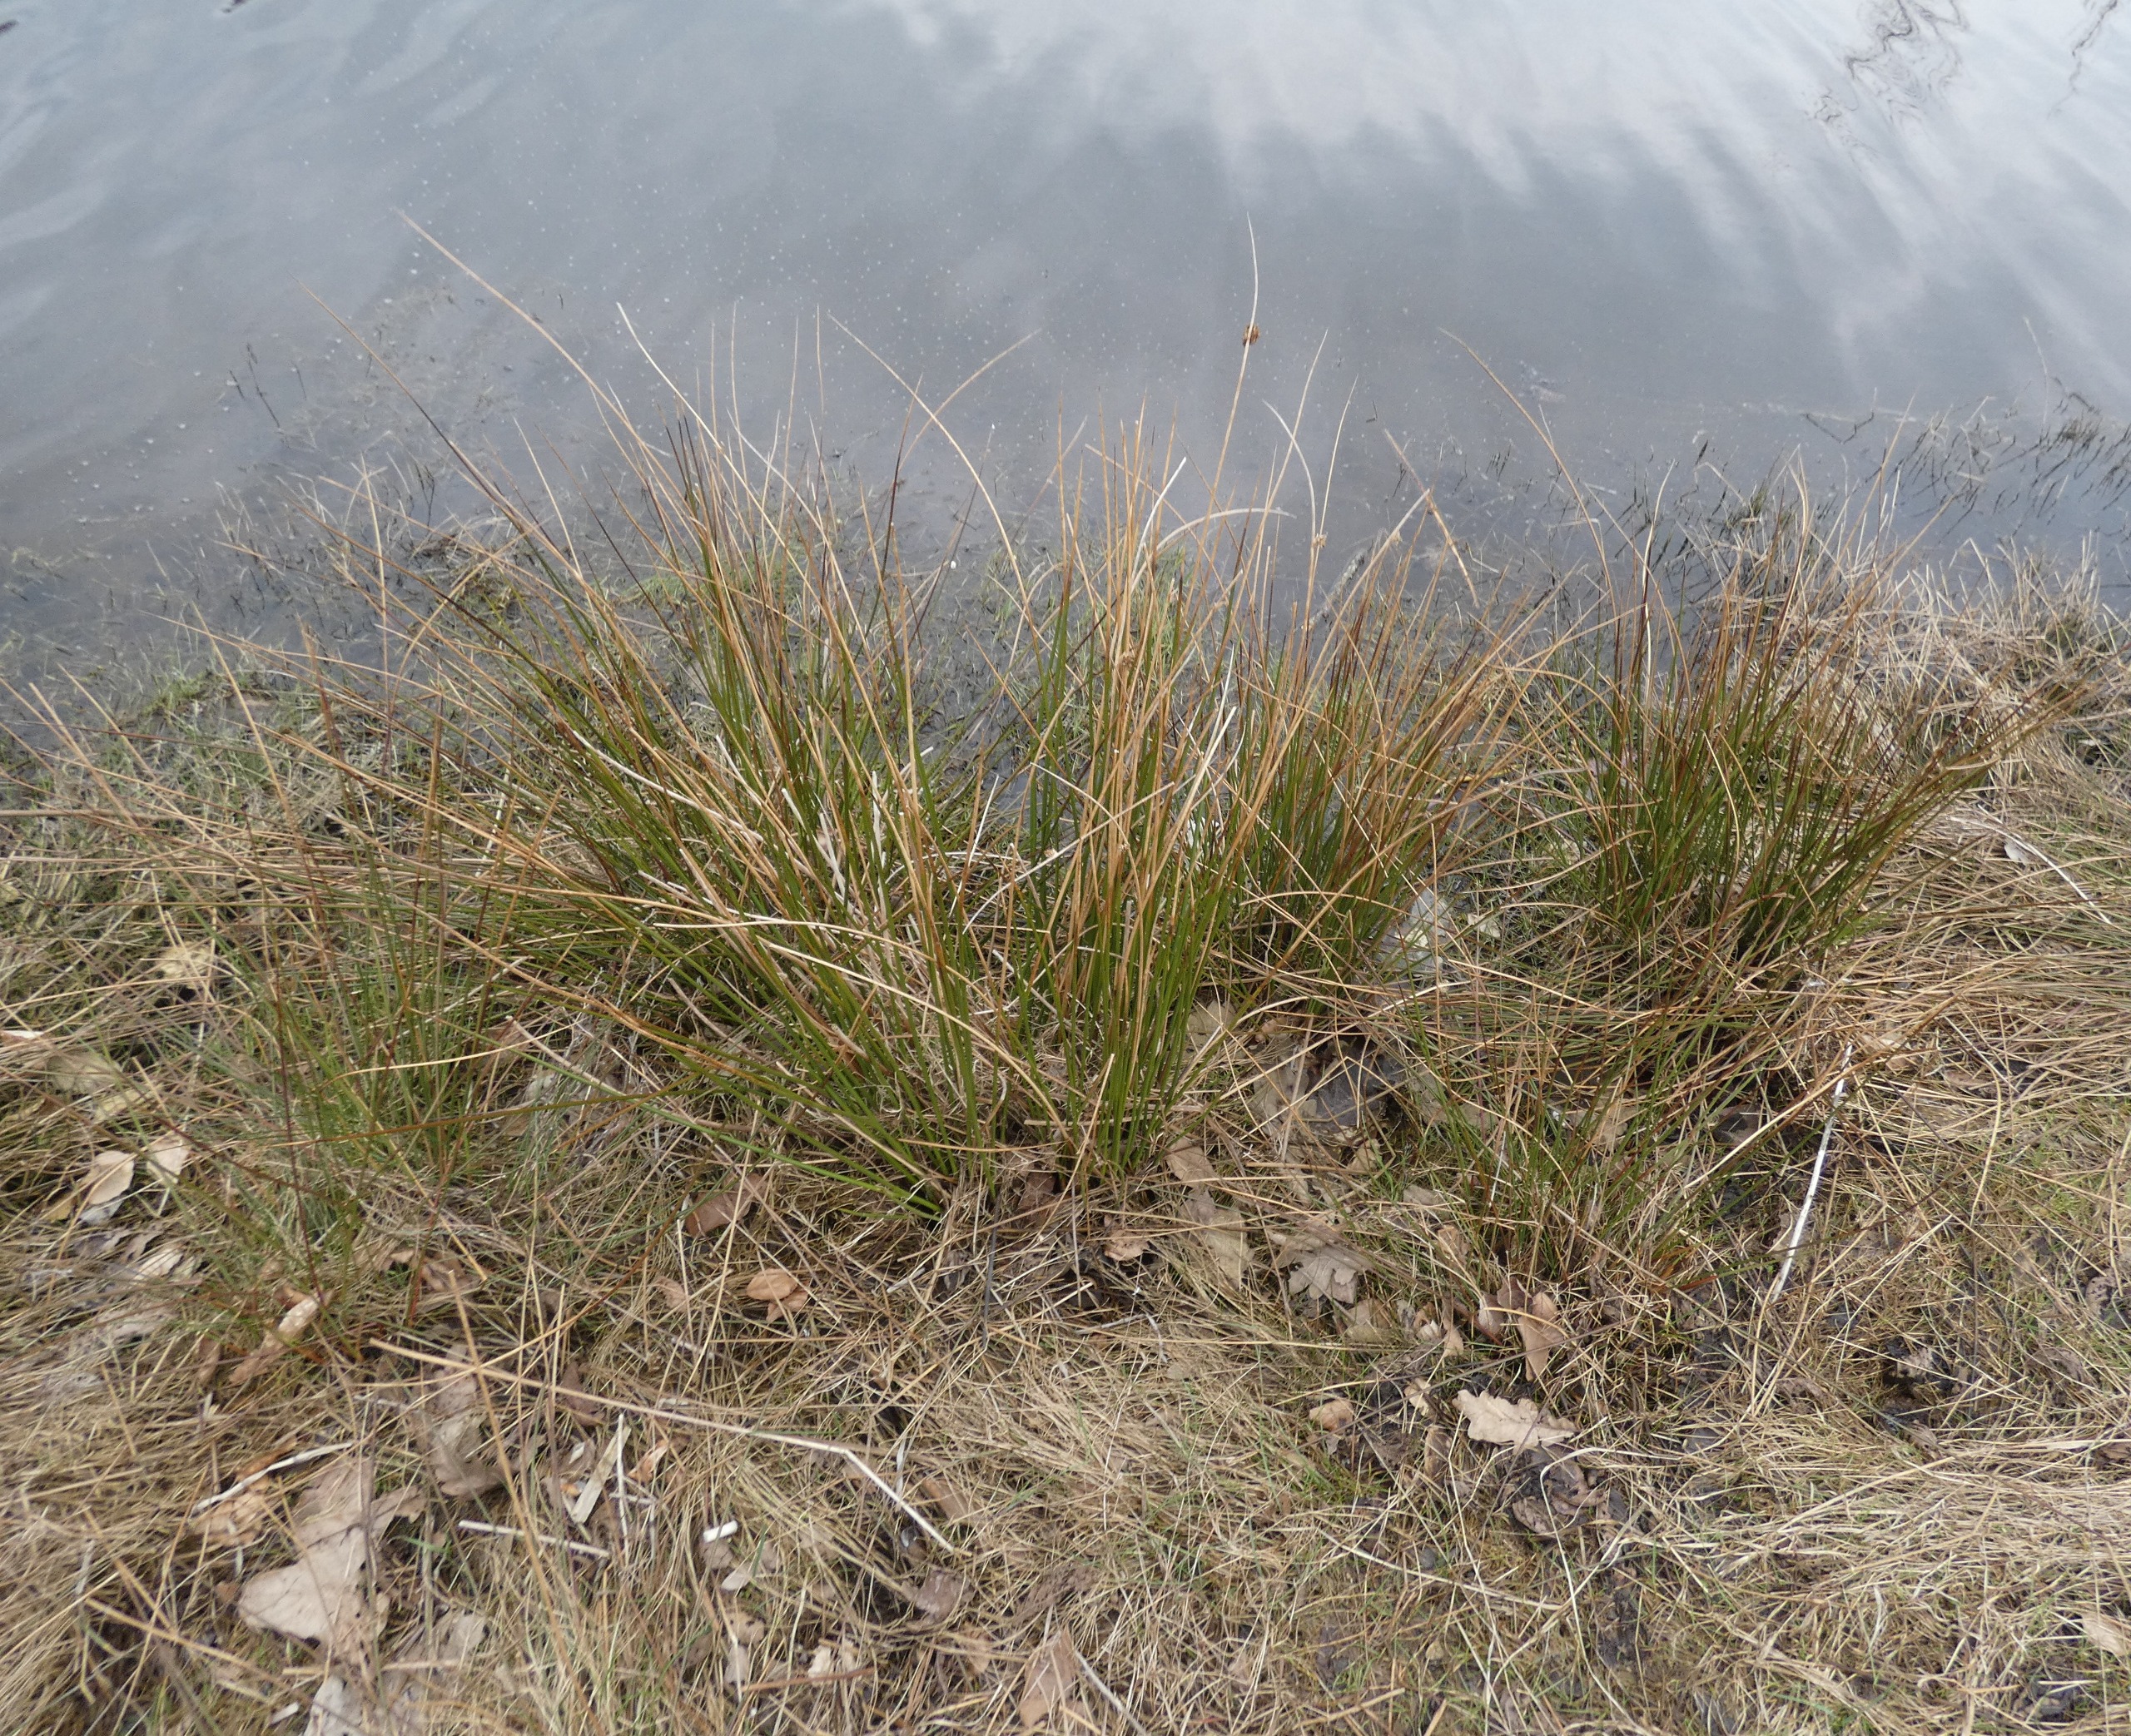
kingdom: Plantae
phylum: Tracheophyta
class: Liliopsida
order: Poales
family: Juncaceae
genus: Juncus
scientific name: Juncus effusus
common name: Lyse-siv
